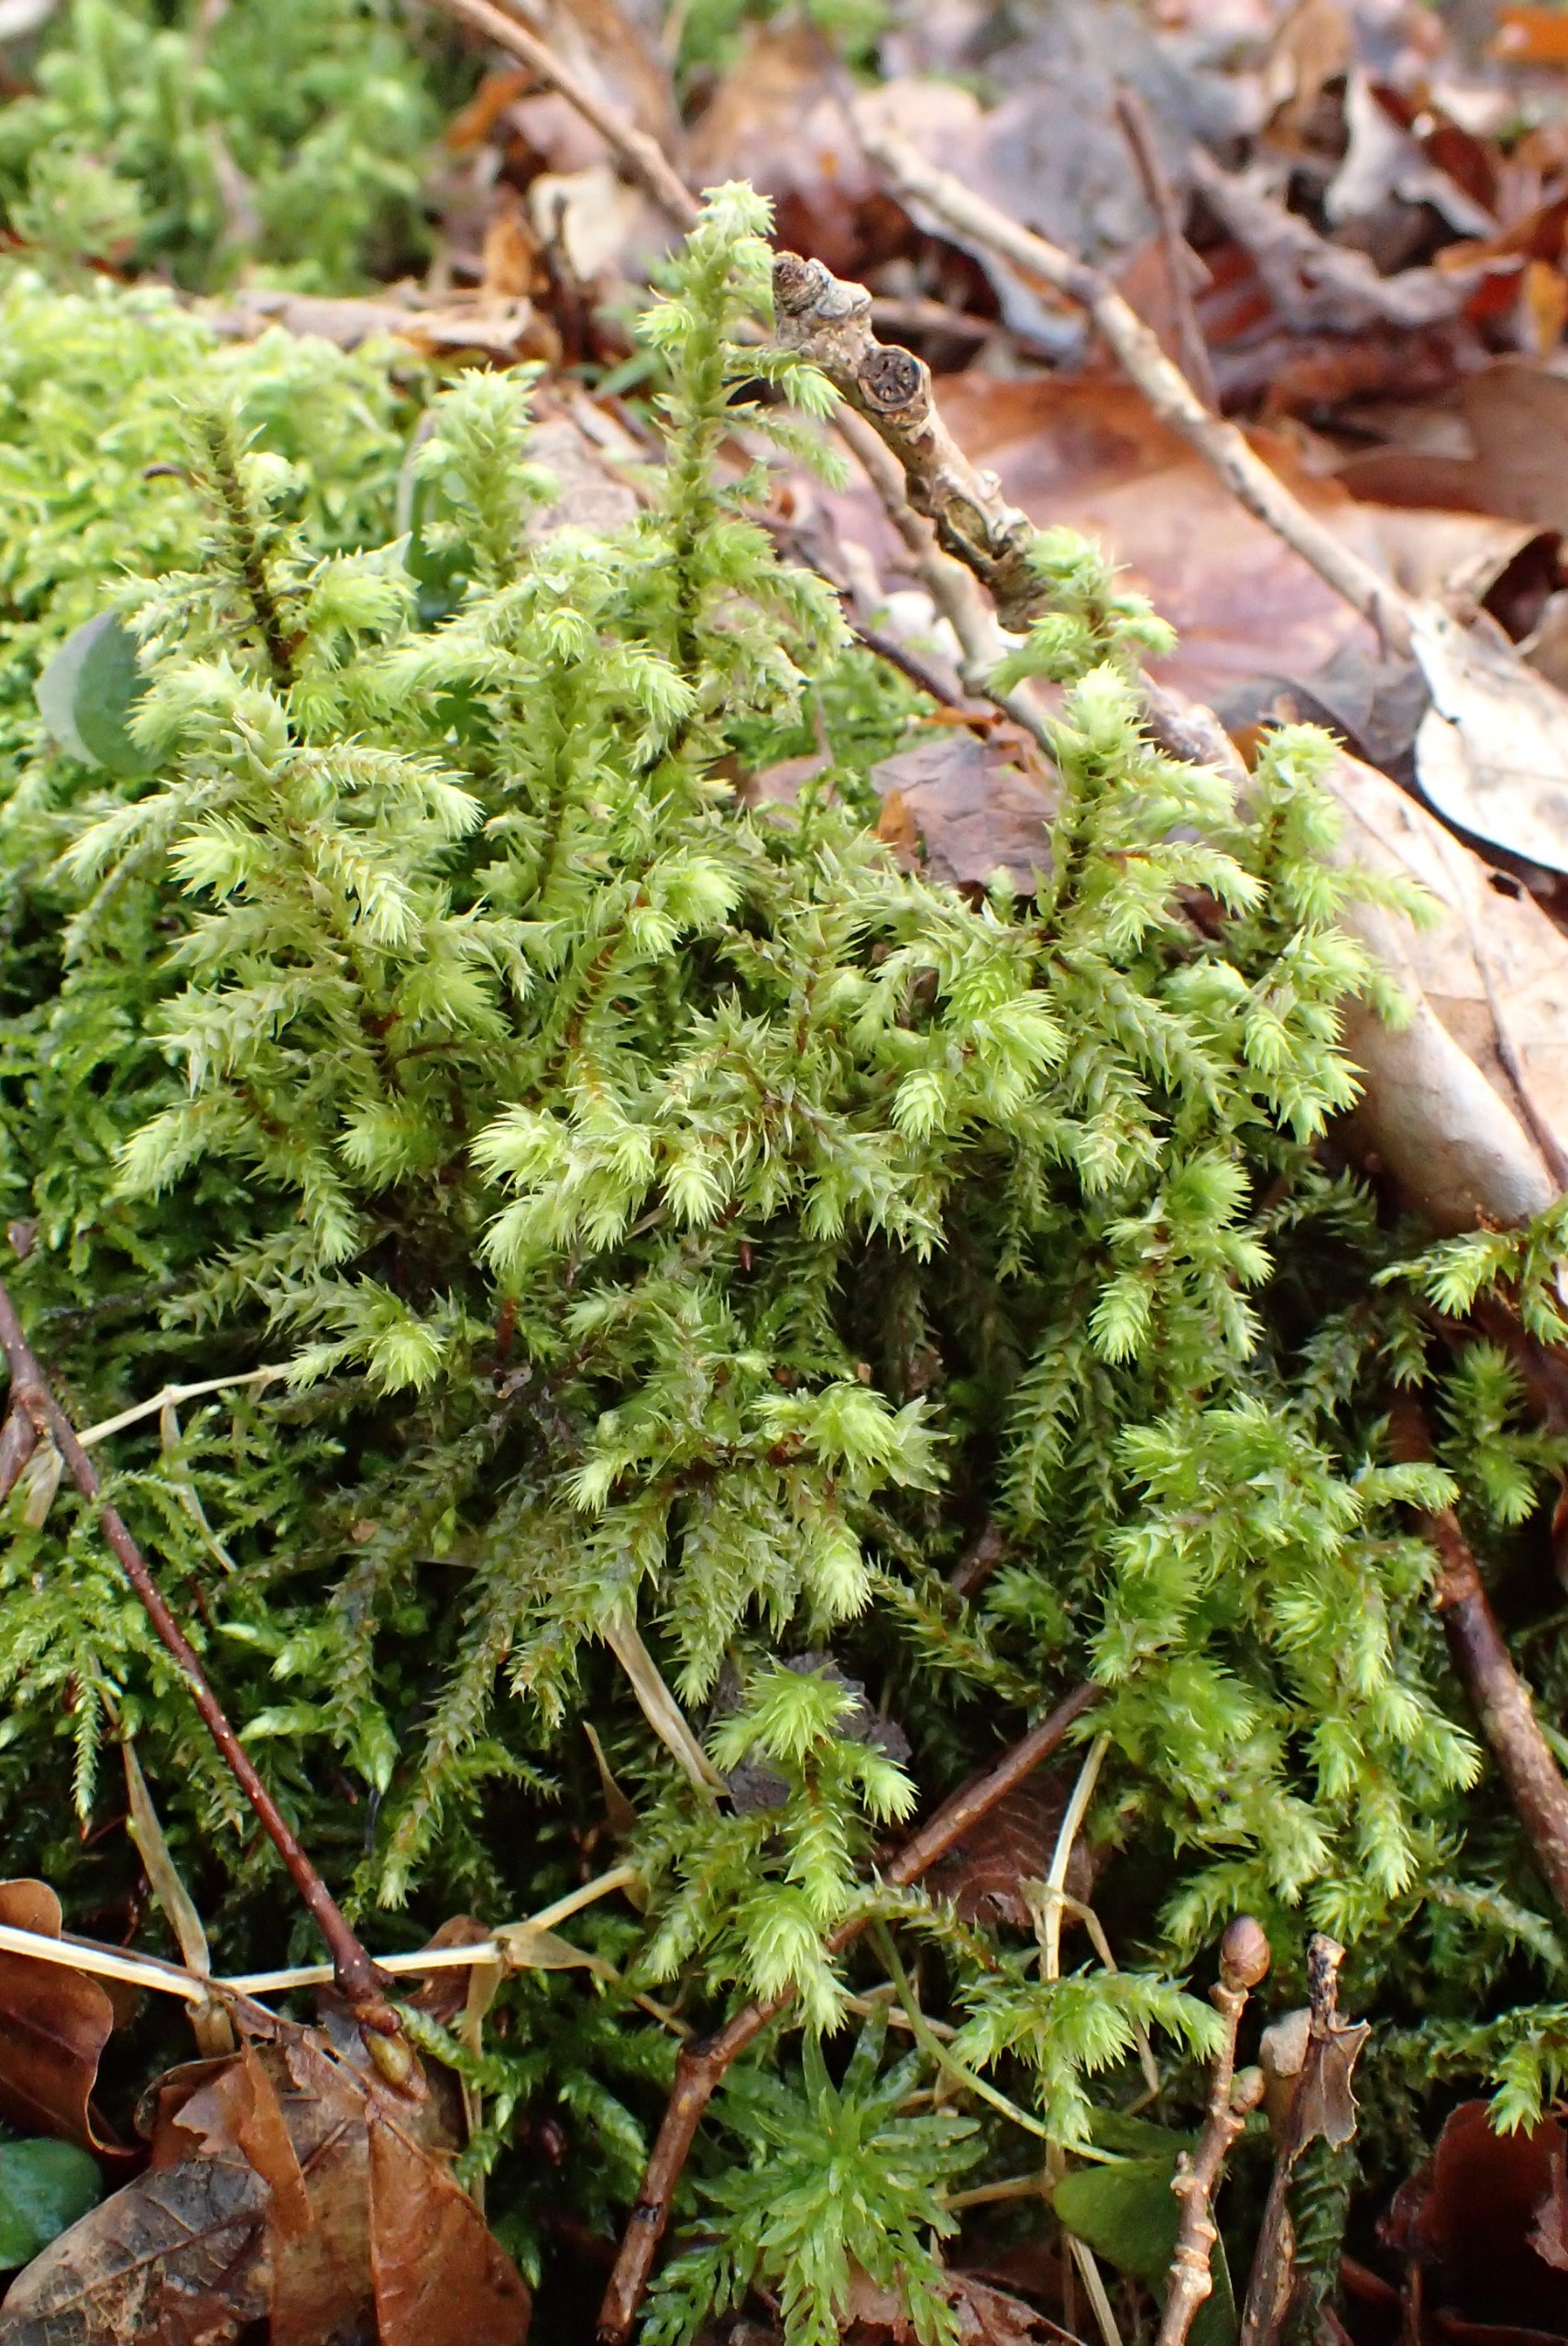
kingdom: Plantae
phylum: Bryophyta
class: Bryopsida
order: Hypnales
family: Hylocomiaceae
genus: Hylocomiadelphus
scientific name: Hylocomiadelphus triquetrus
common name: Stor kransemos
